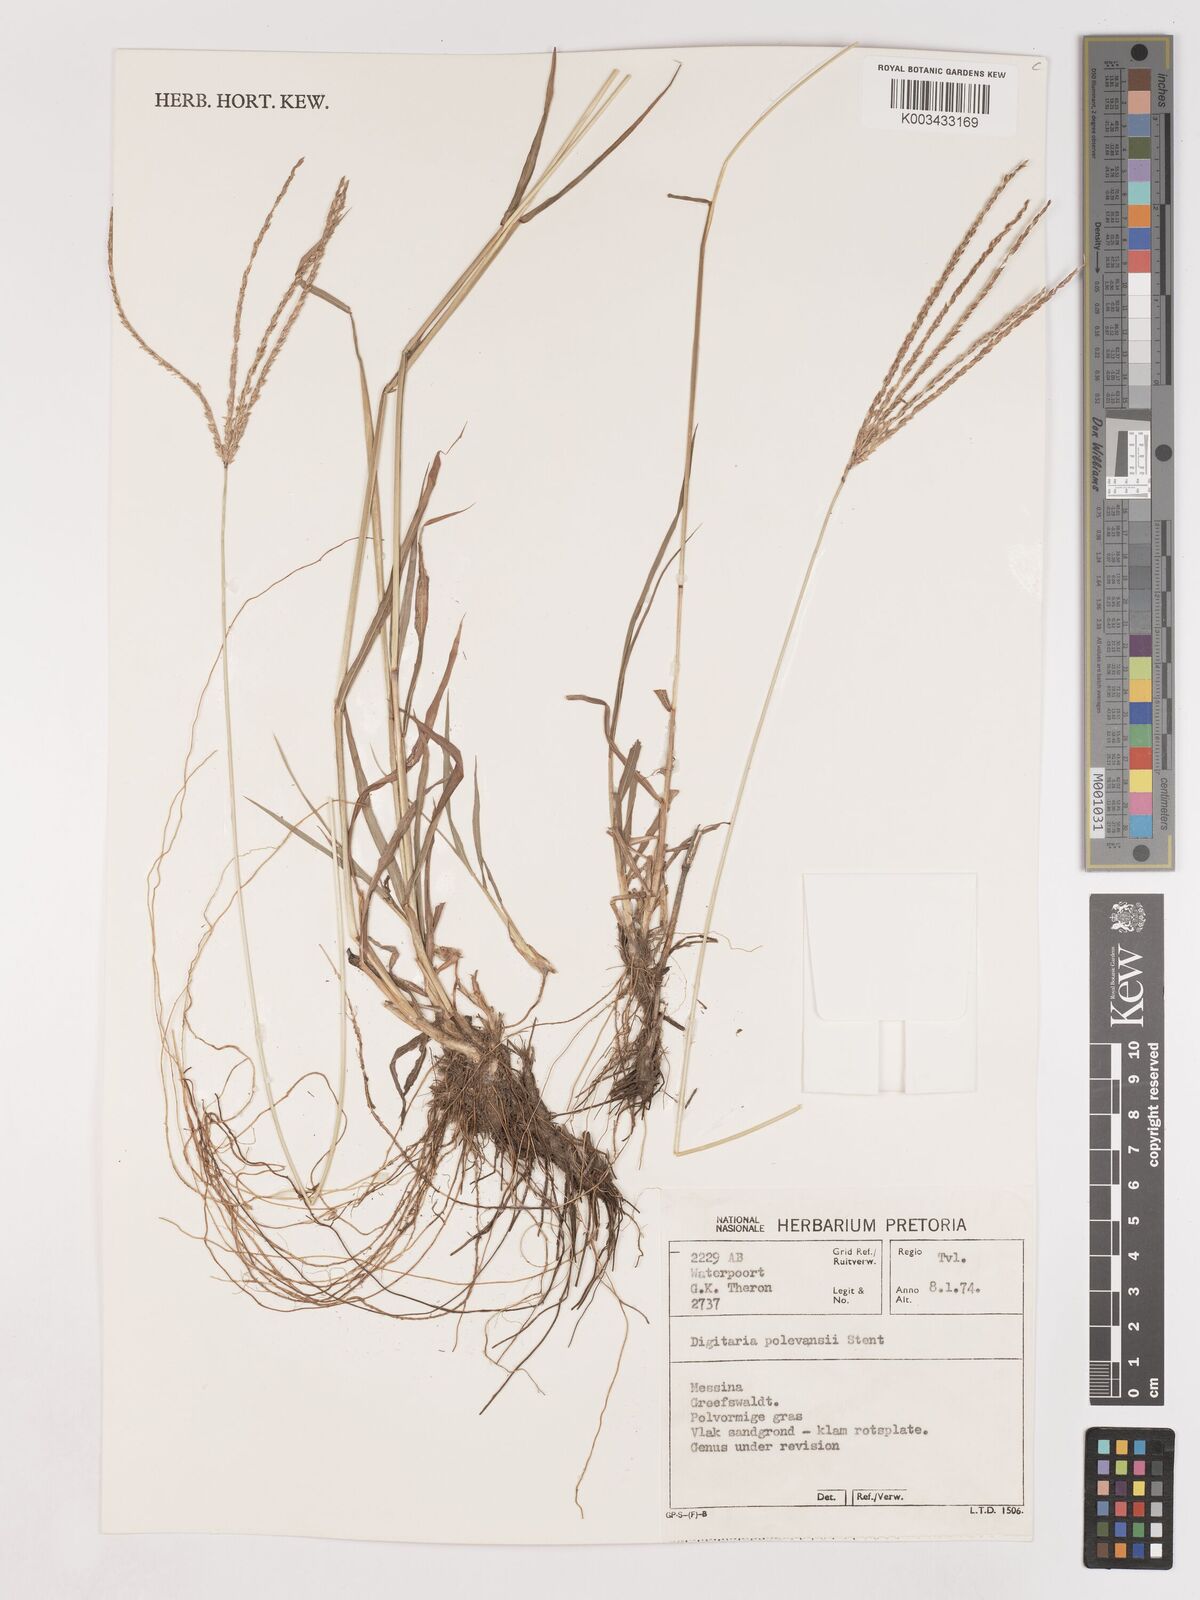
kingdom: Plantae
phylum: Tracheophyta
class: Liliopsida
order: Poales
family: Poaceae
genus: Digitaria
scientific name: Digitaria milanjiana
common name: Madagascar crabgrass
